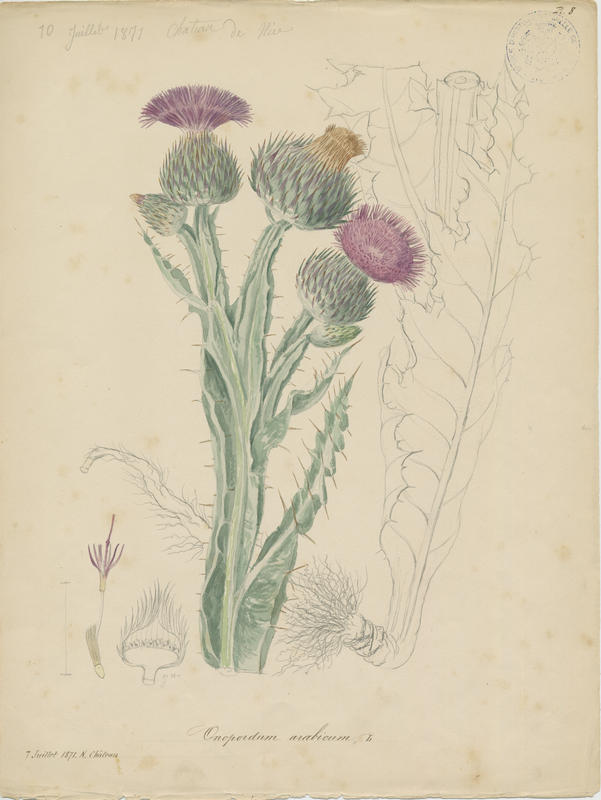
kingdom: Plantae
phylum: Tracheophyta
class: Magnoliopsida
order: Asterales
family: Asteraceae
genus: Onopordum
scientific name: Onopordum illyricum
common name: Illyrian thistle
